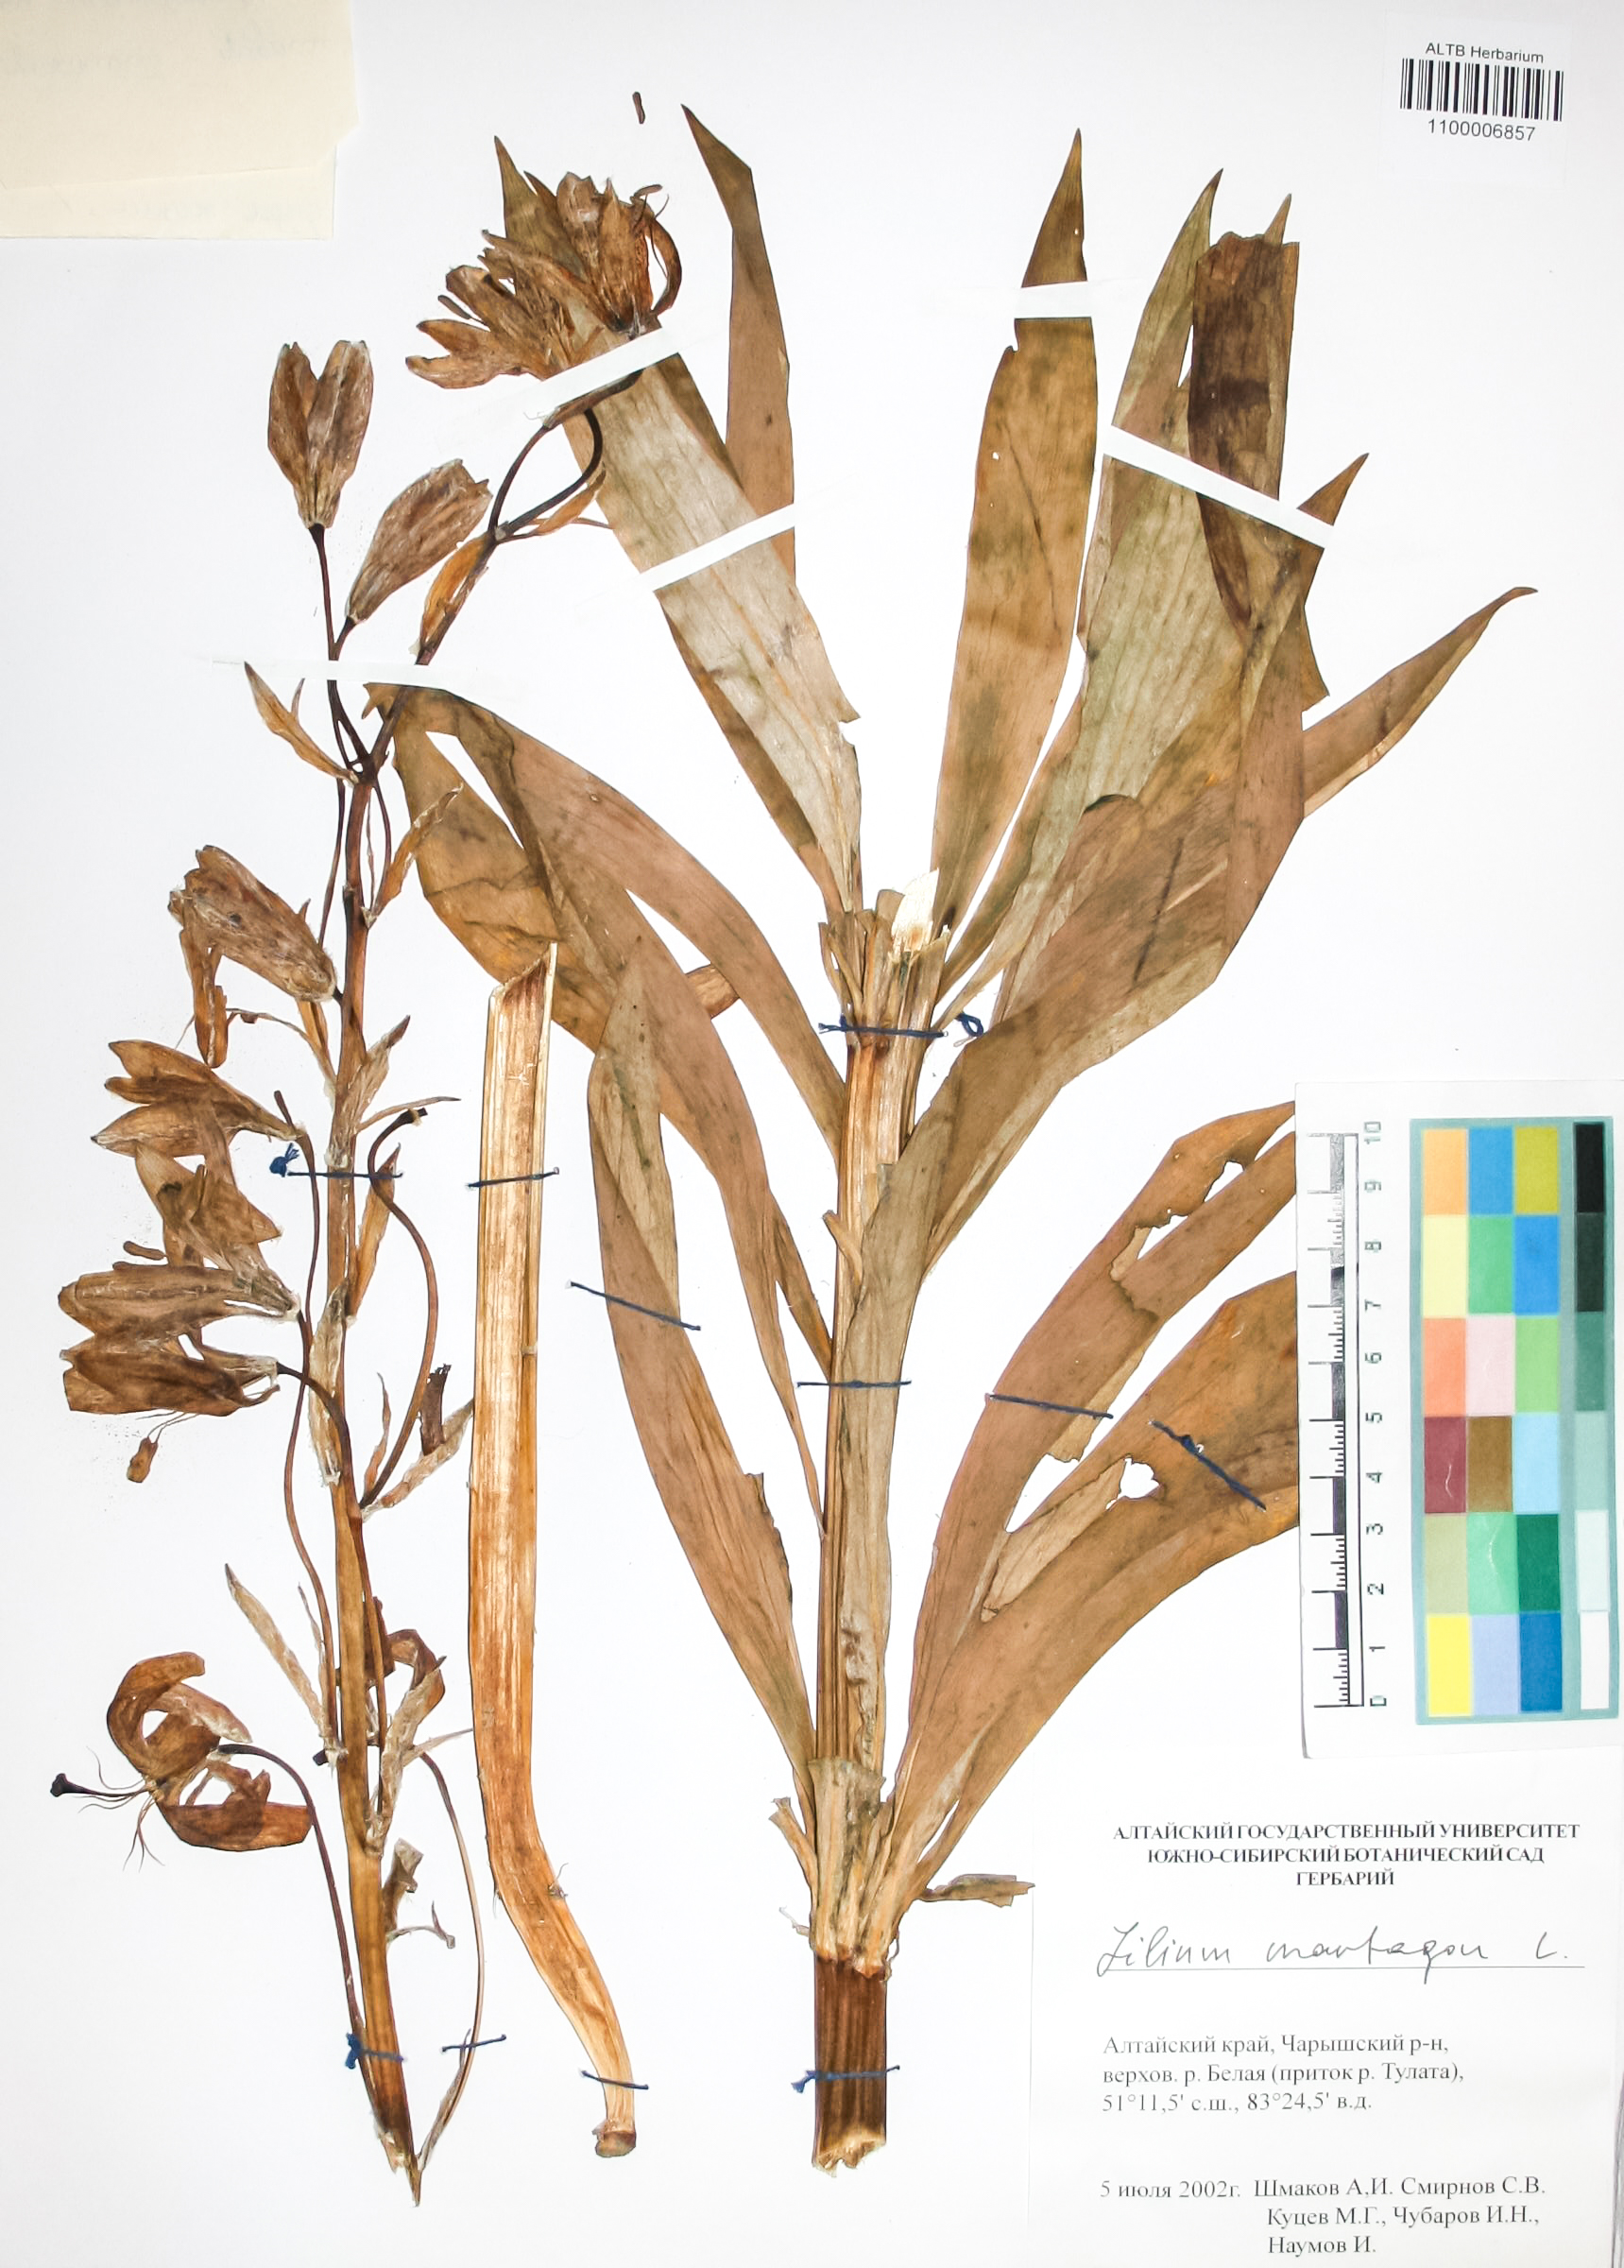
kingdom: Plantae
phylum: Tracheophyta
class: Liliopsida
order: Liliales
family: Liliaceae
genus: Lilium
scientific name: Lilium martagon
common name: Martagon lily
